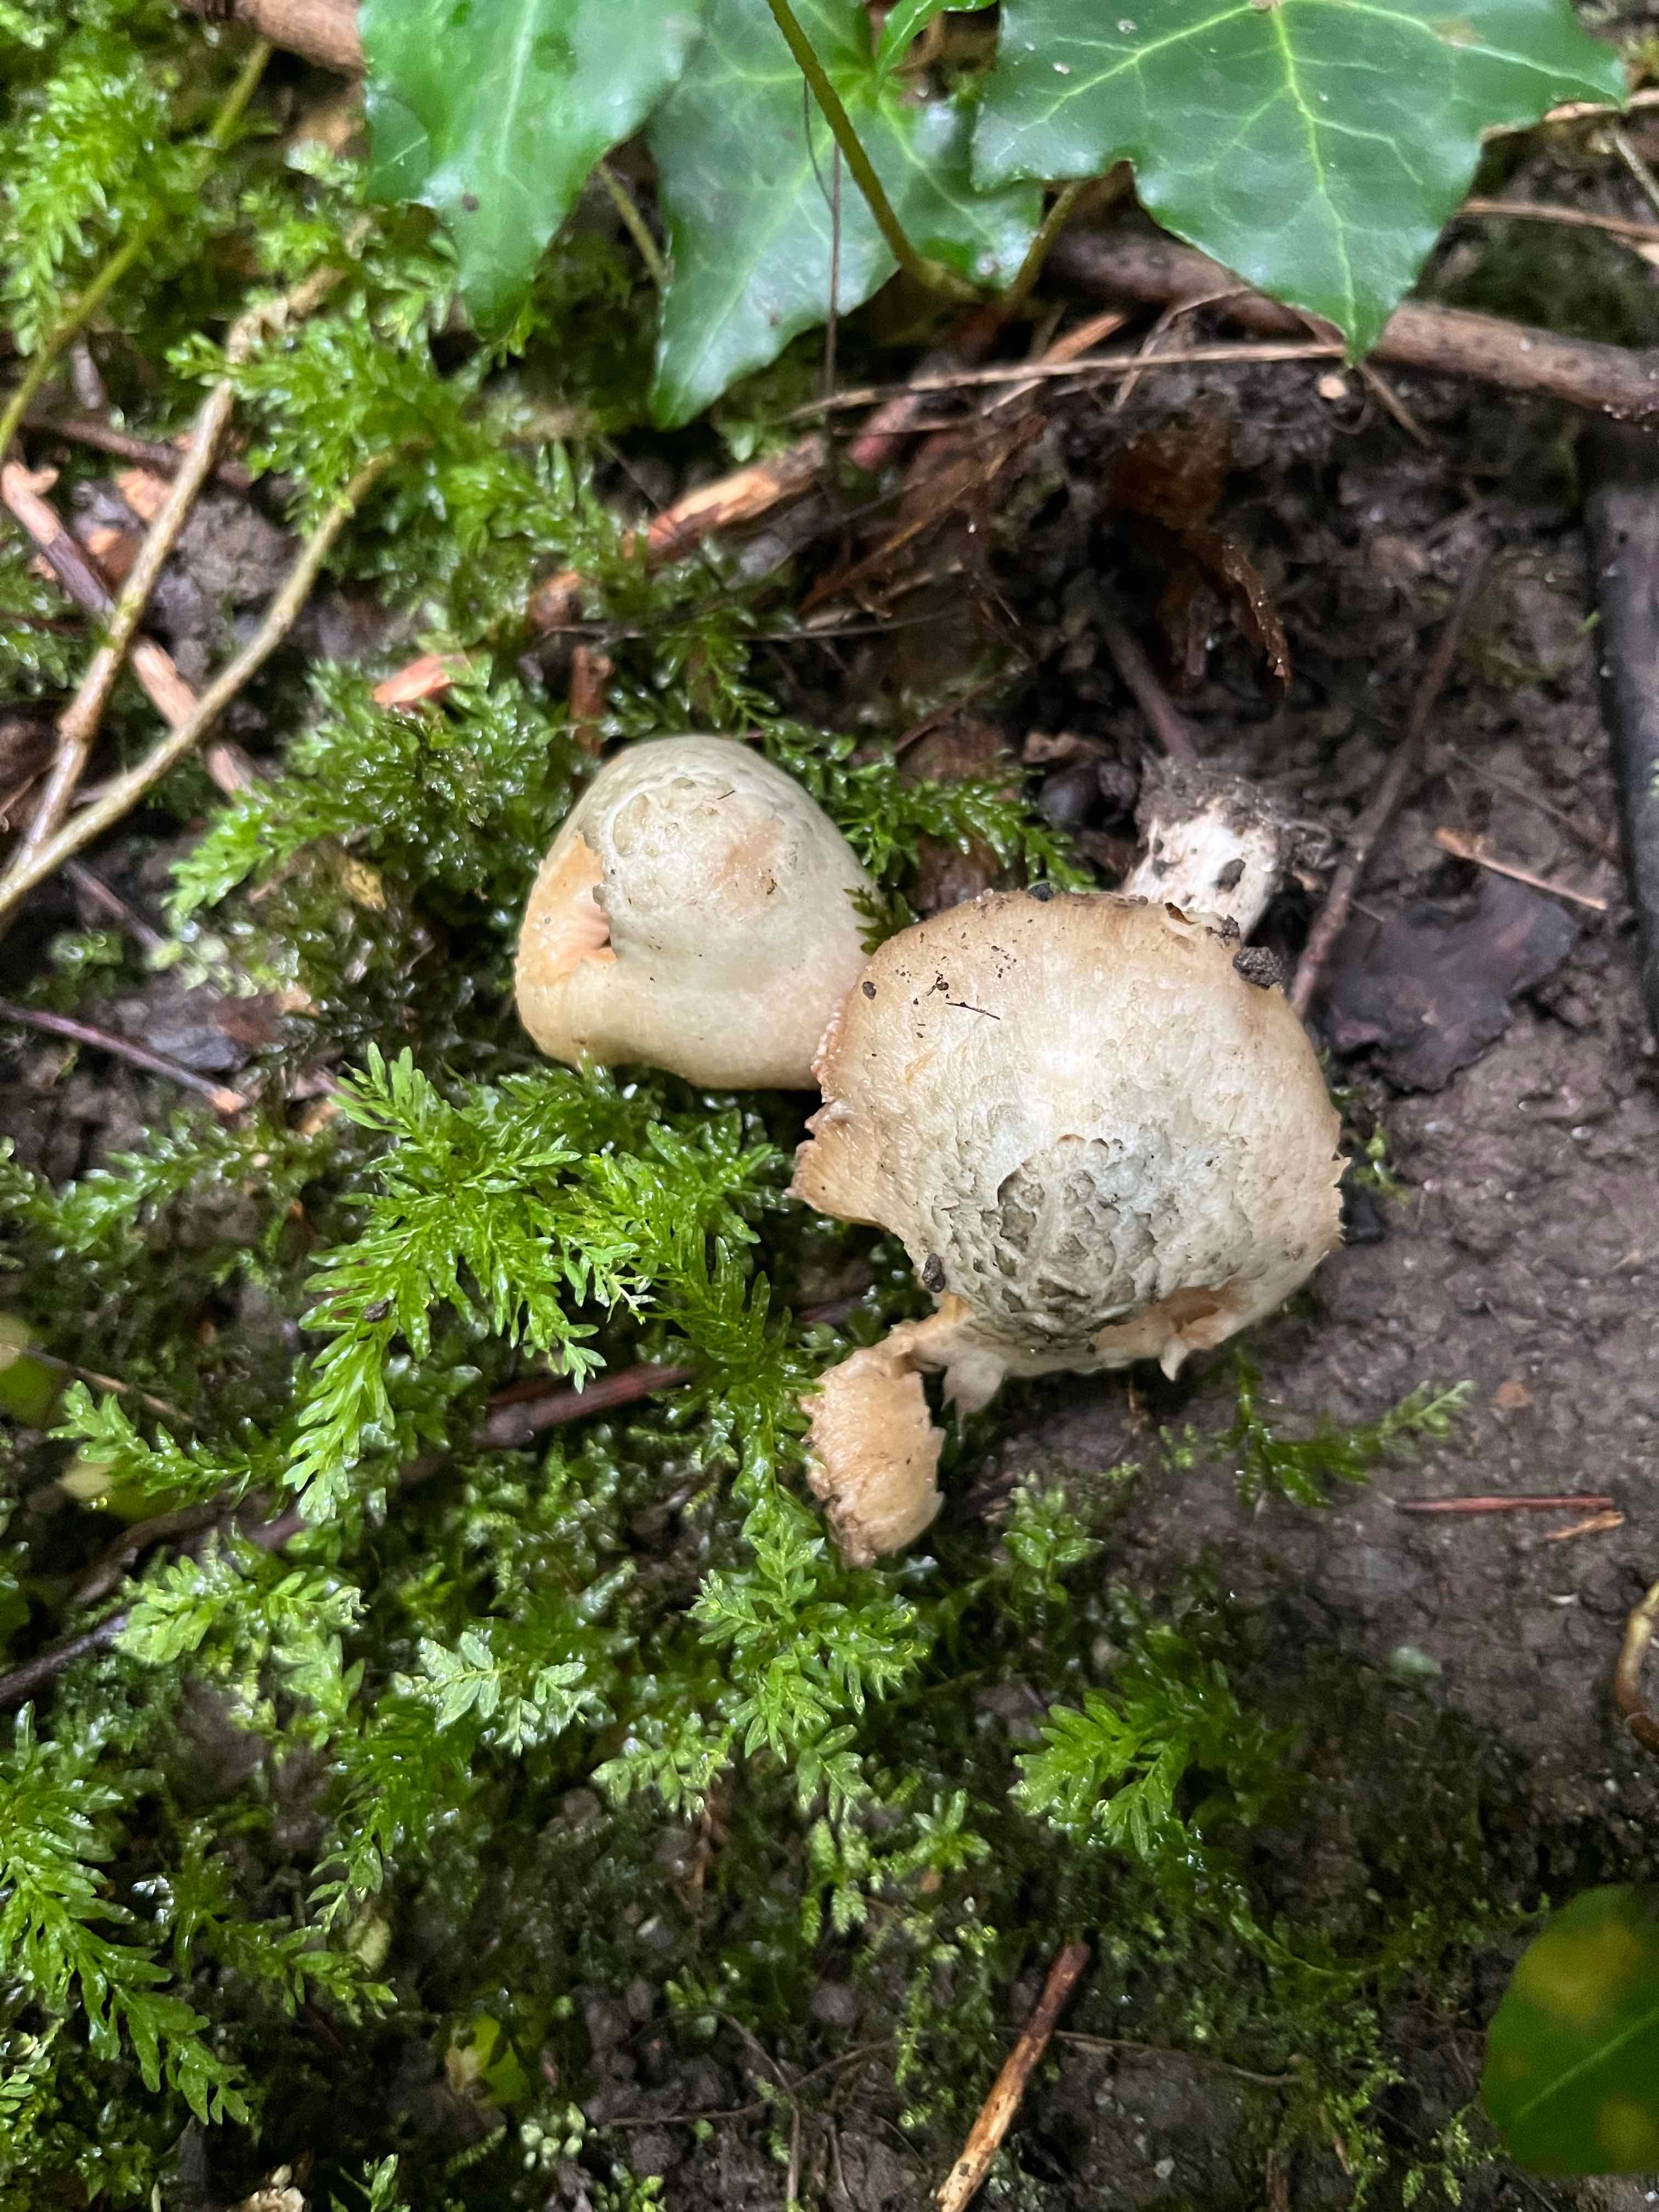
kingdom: Fungi
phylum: Basidiomycota
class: Agaricomycetes
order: Agaricales
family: Inocybaceae
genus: Inocybe
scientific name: Inocybe corydalina
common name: grønpuklet trævlhat
